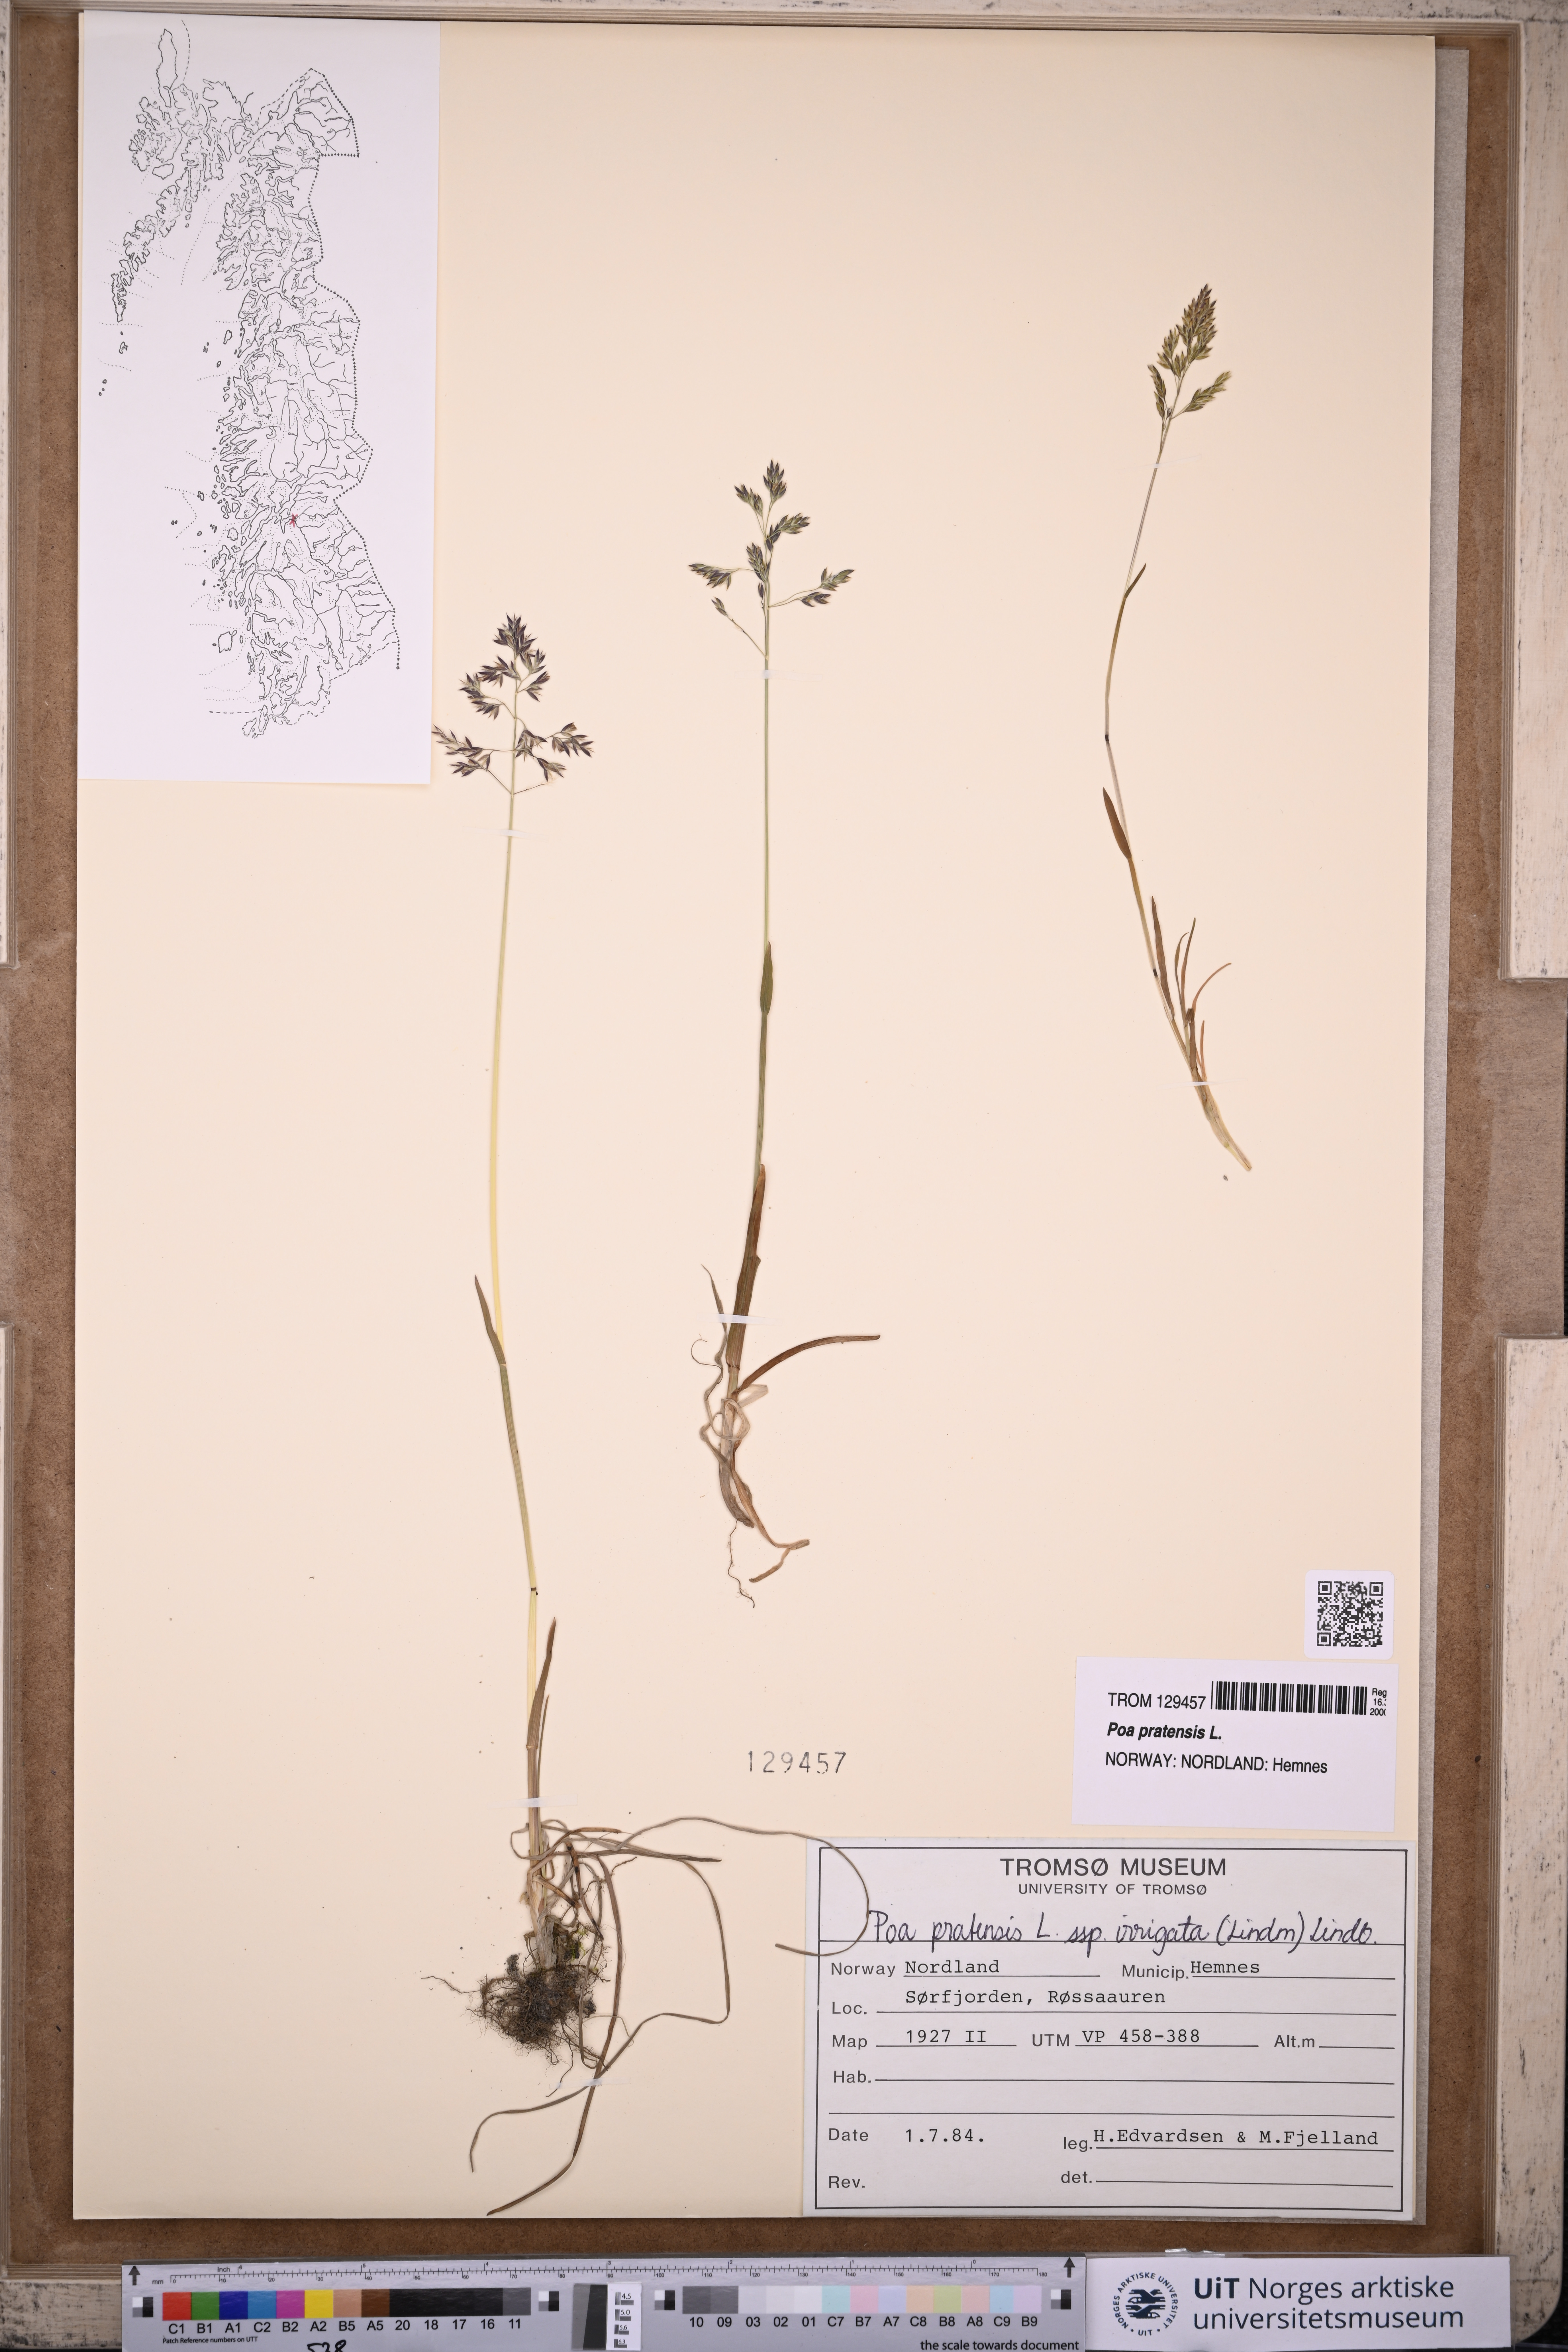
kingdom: Plantae
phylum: Tracheophyta
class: Liliopsida
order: Poales
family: Poaceae
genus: Poa
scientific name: Poa pratensis
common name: Kentucky bluegrass
